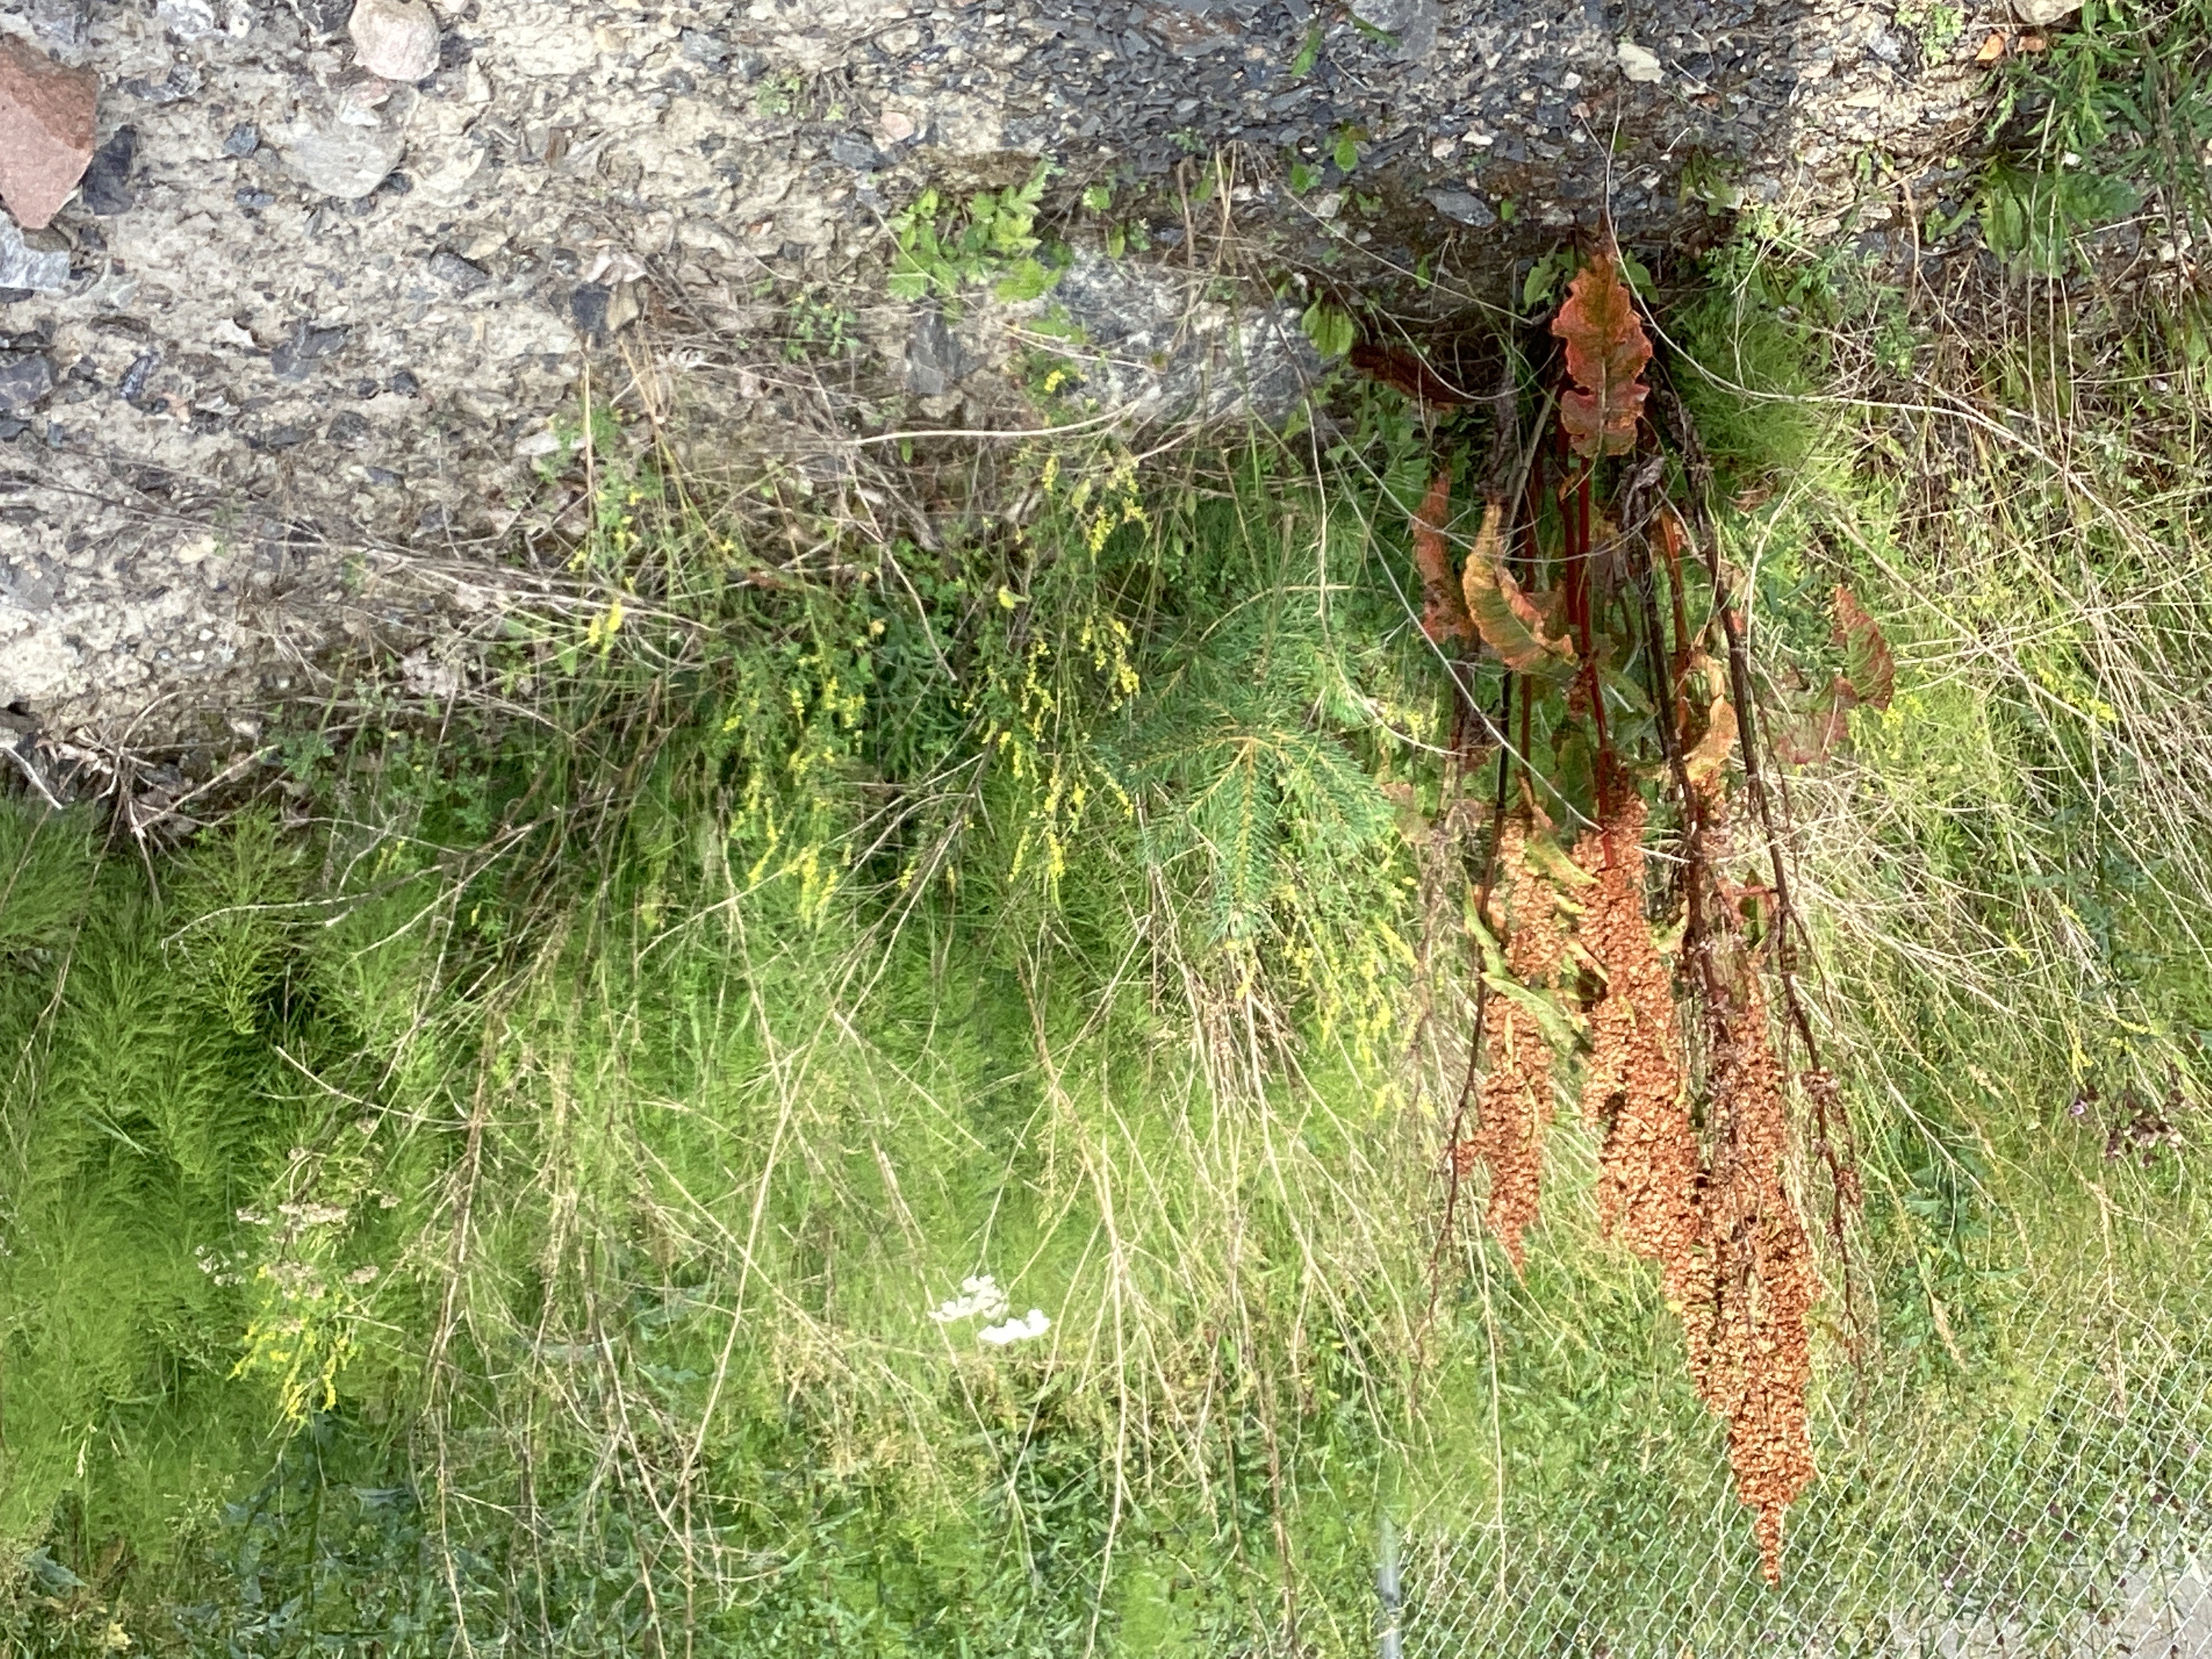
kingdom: Plantae
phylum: Tracheophyta
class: Magnoliopsida
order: Fabales
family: Fabaceae
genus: Melilotus
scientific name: Melilotus officinalis
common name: legesteinkløver
